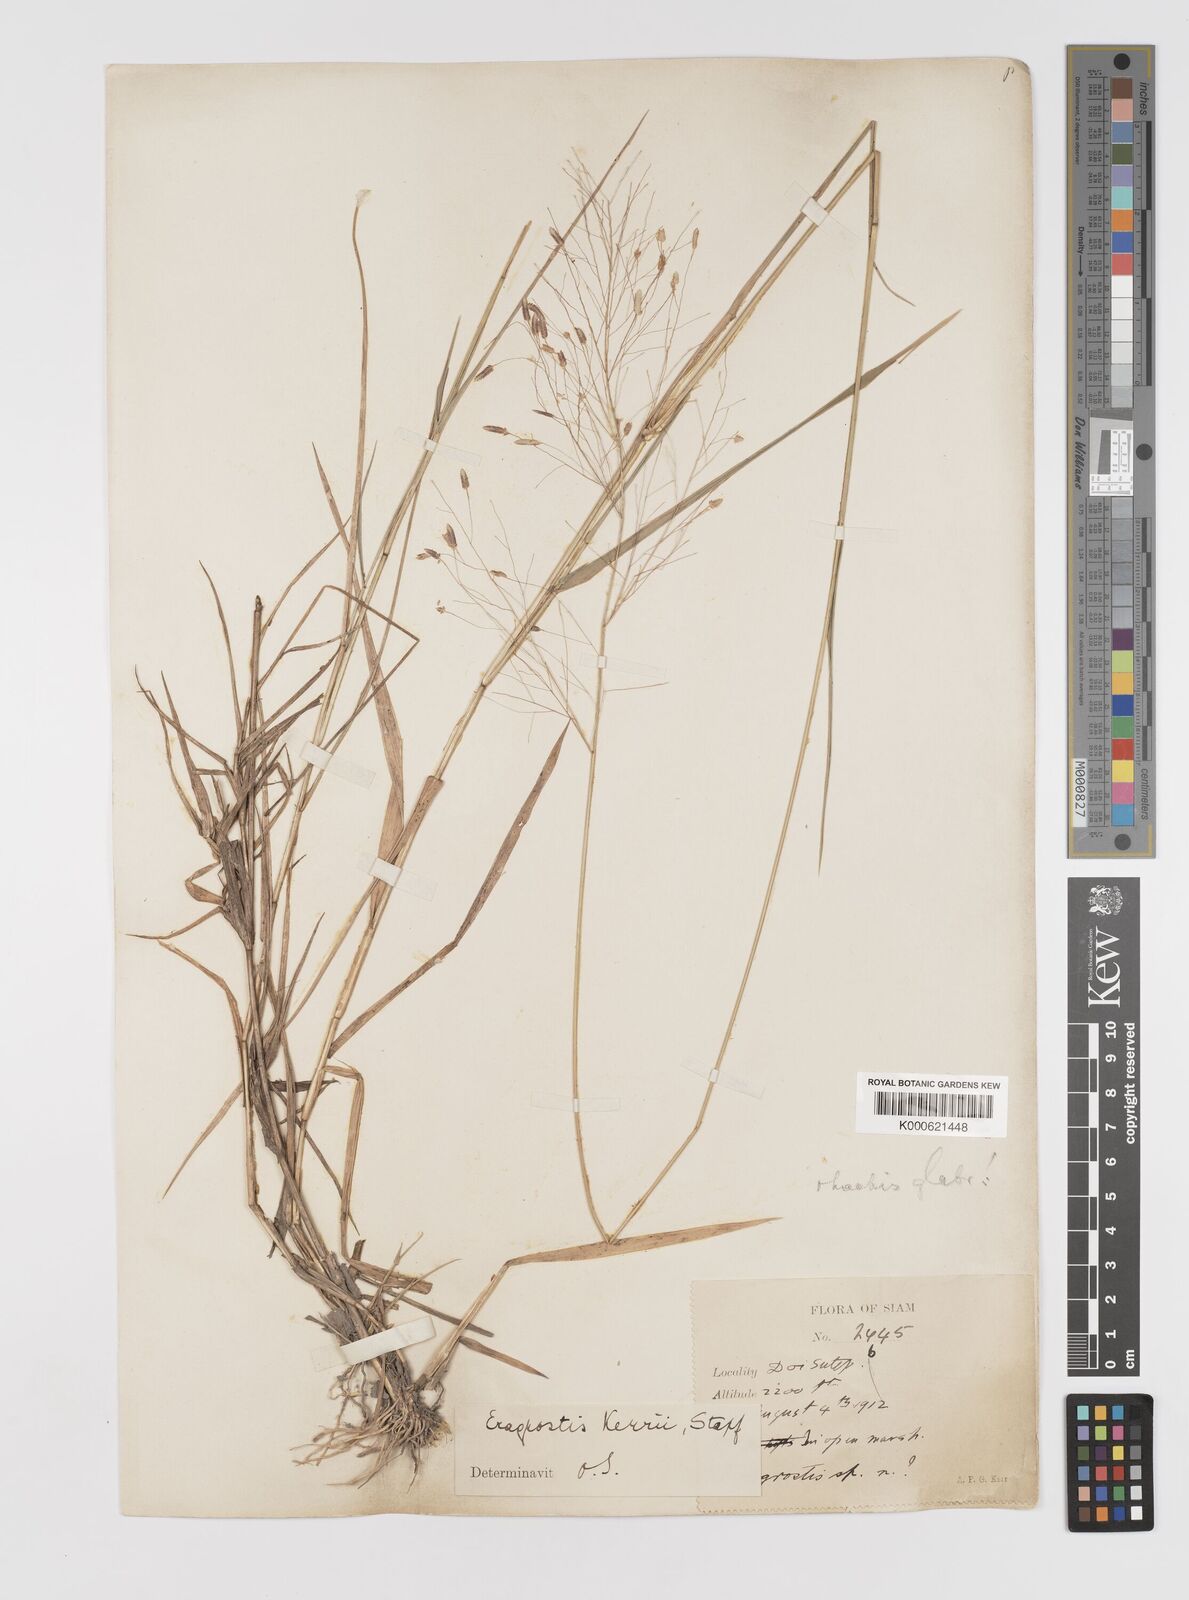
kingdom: Plantae
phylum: Tracheophyta
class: Liliopsida
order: Poales
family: Poaceae
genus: Eragrostis
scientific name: Eragrostis cumingii
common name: Cuming's lovegrass
